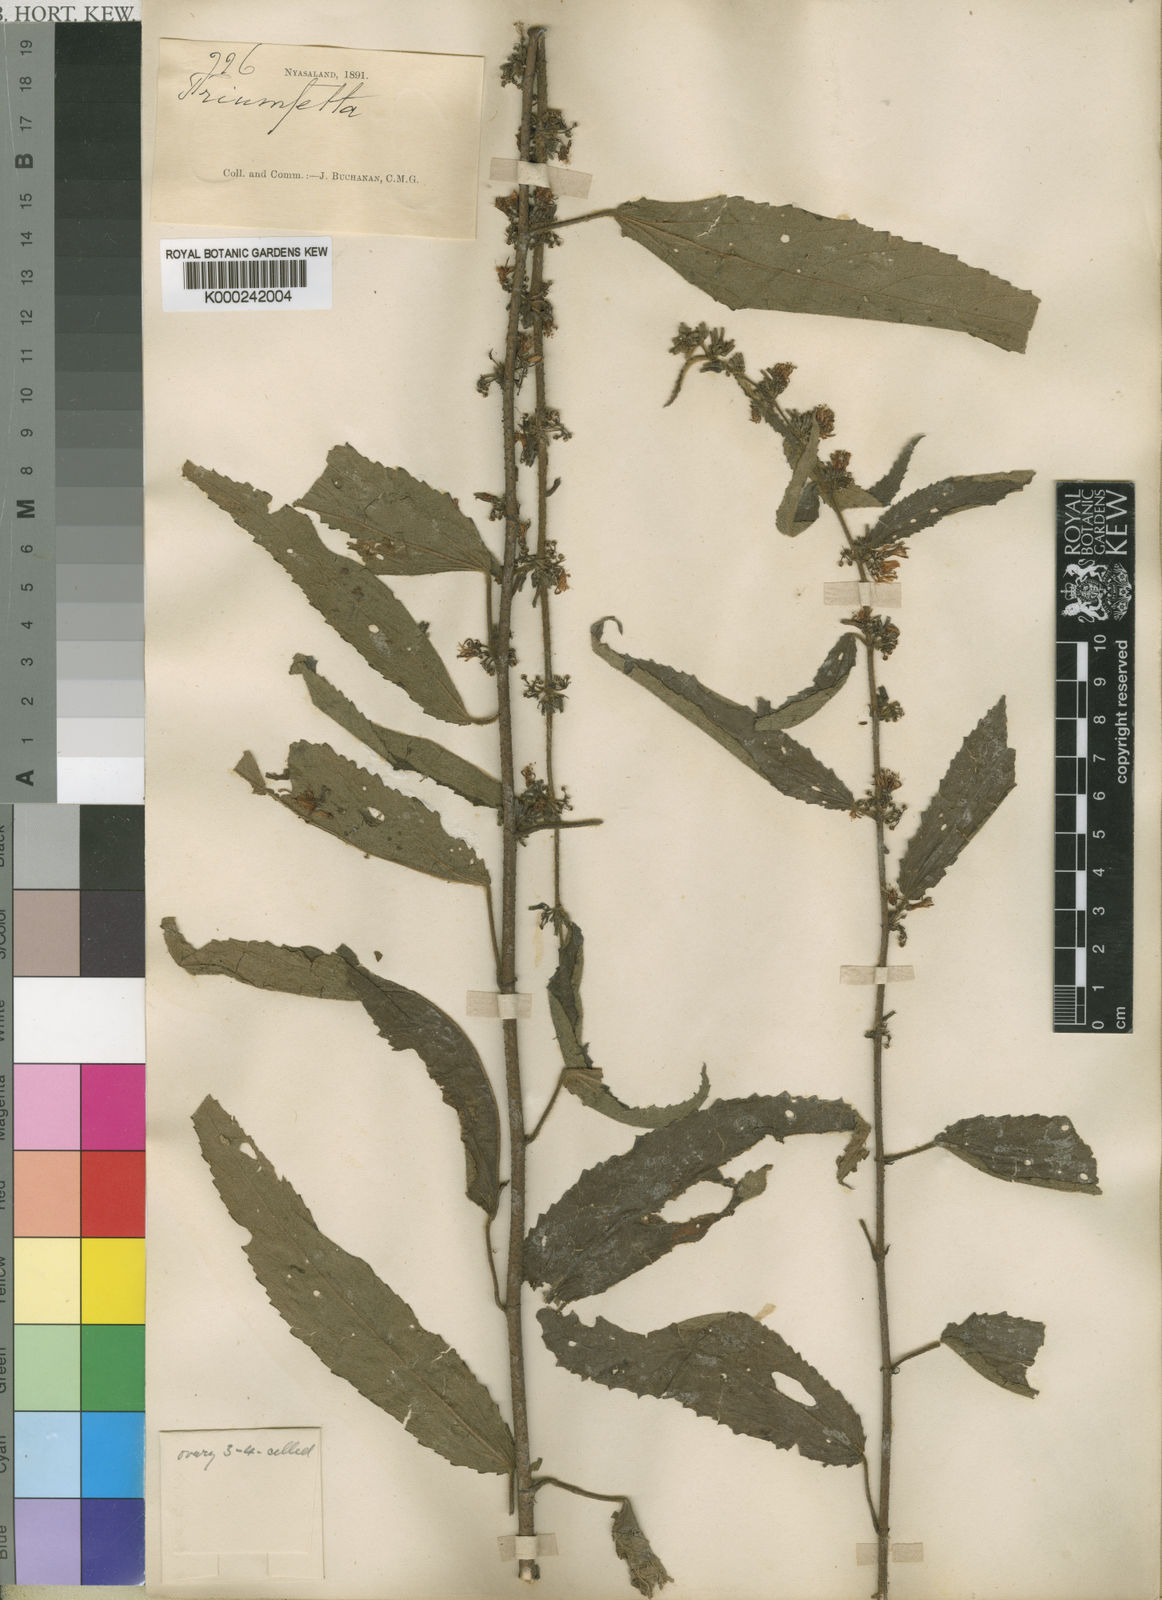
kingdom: Plantae
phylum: Tracheophyta
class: Magnoliopsida
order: Malvales
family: Malvaceae
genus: Triumfetta
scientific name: Triumfetta pilosa
